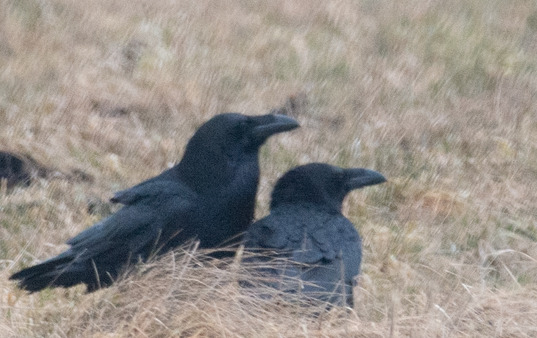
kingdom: Animalia
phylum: Chordata
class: Aves
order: Passeriformes
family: Corvidae
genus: Corvus
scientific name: Corvus corax
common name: Ravn
